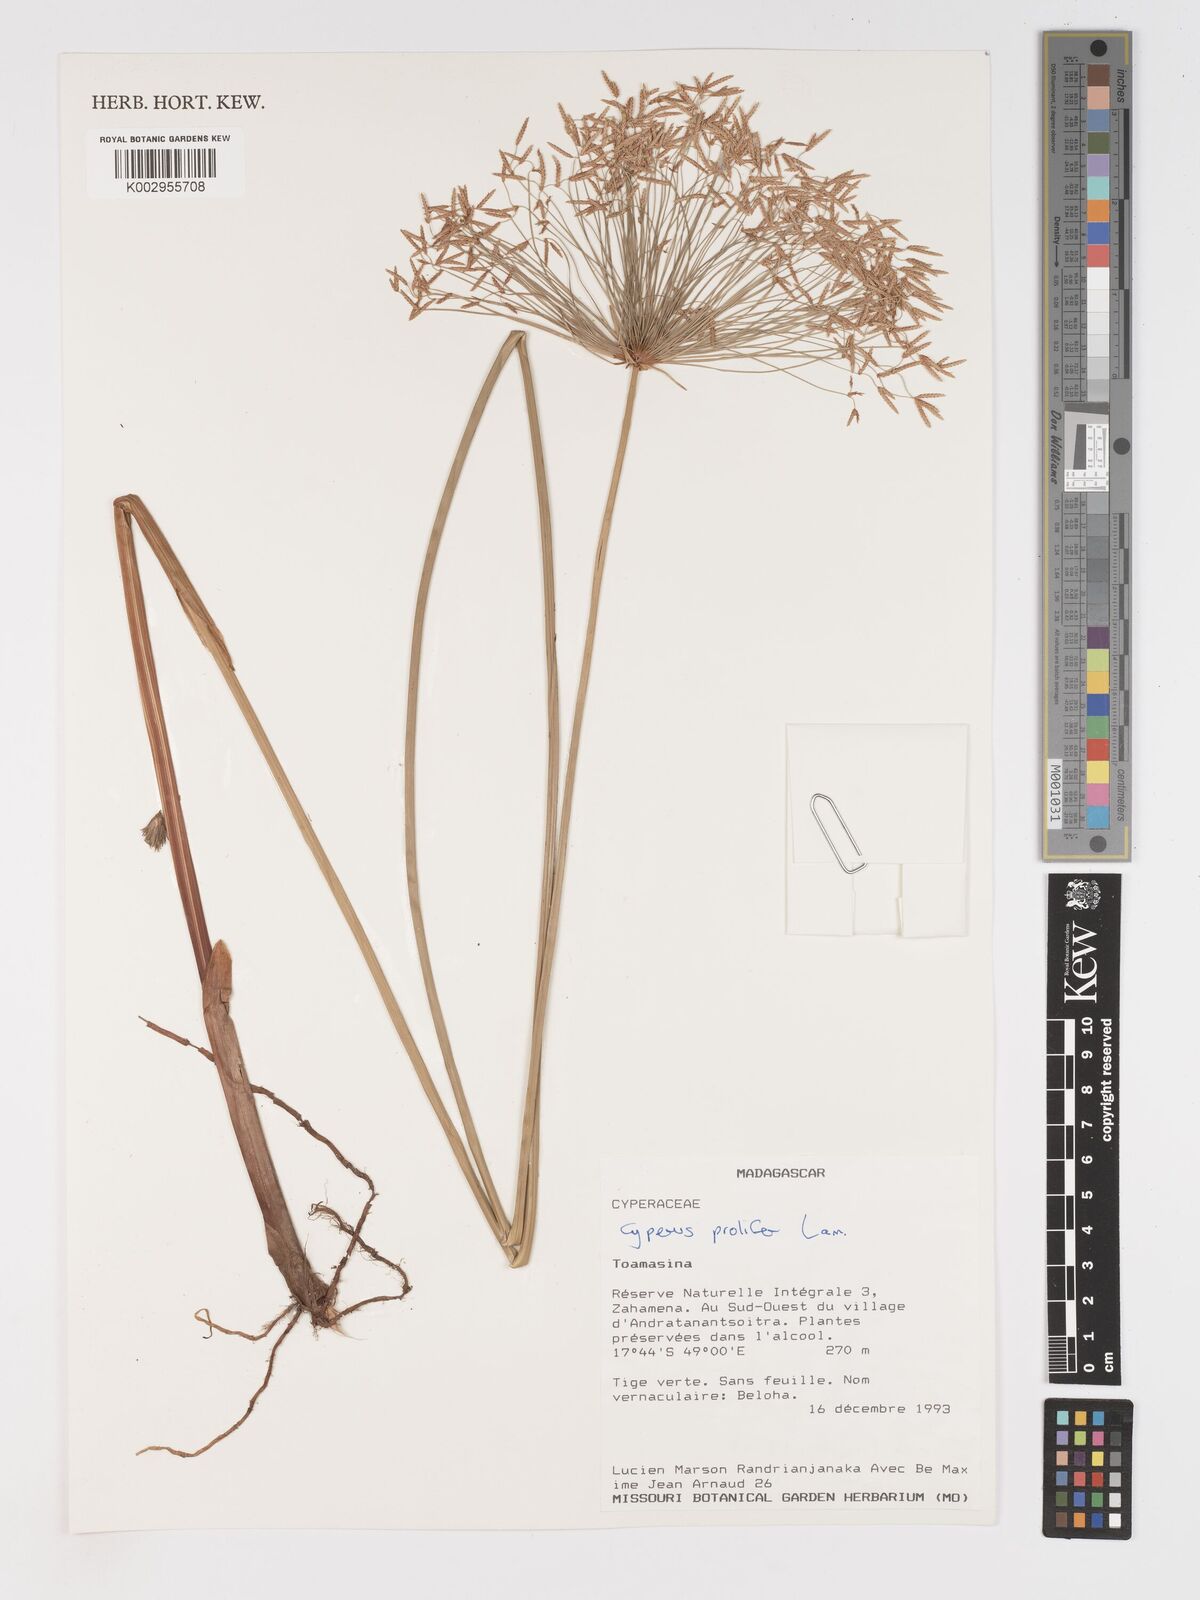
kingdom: Plantae
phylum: Tracheophyta
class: Liliopsida
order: Poales
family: Cyperaceae
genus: Cyperus
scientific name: Cyperus prolifer
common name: Miniature flatsedge
